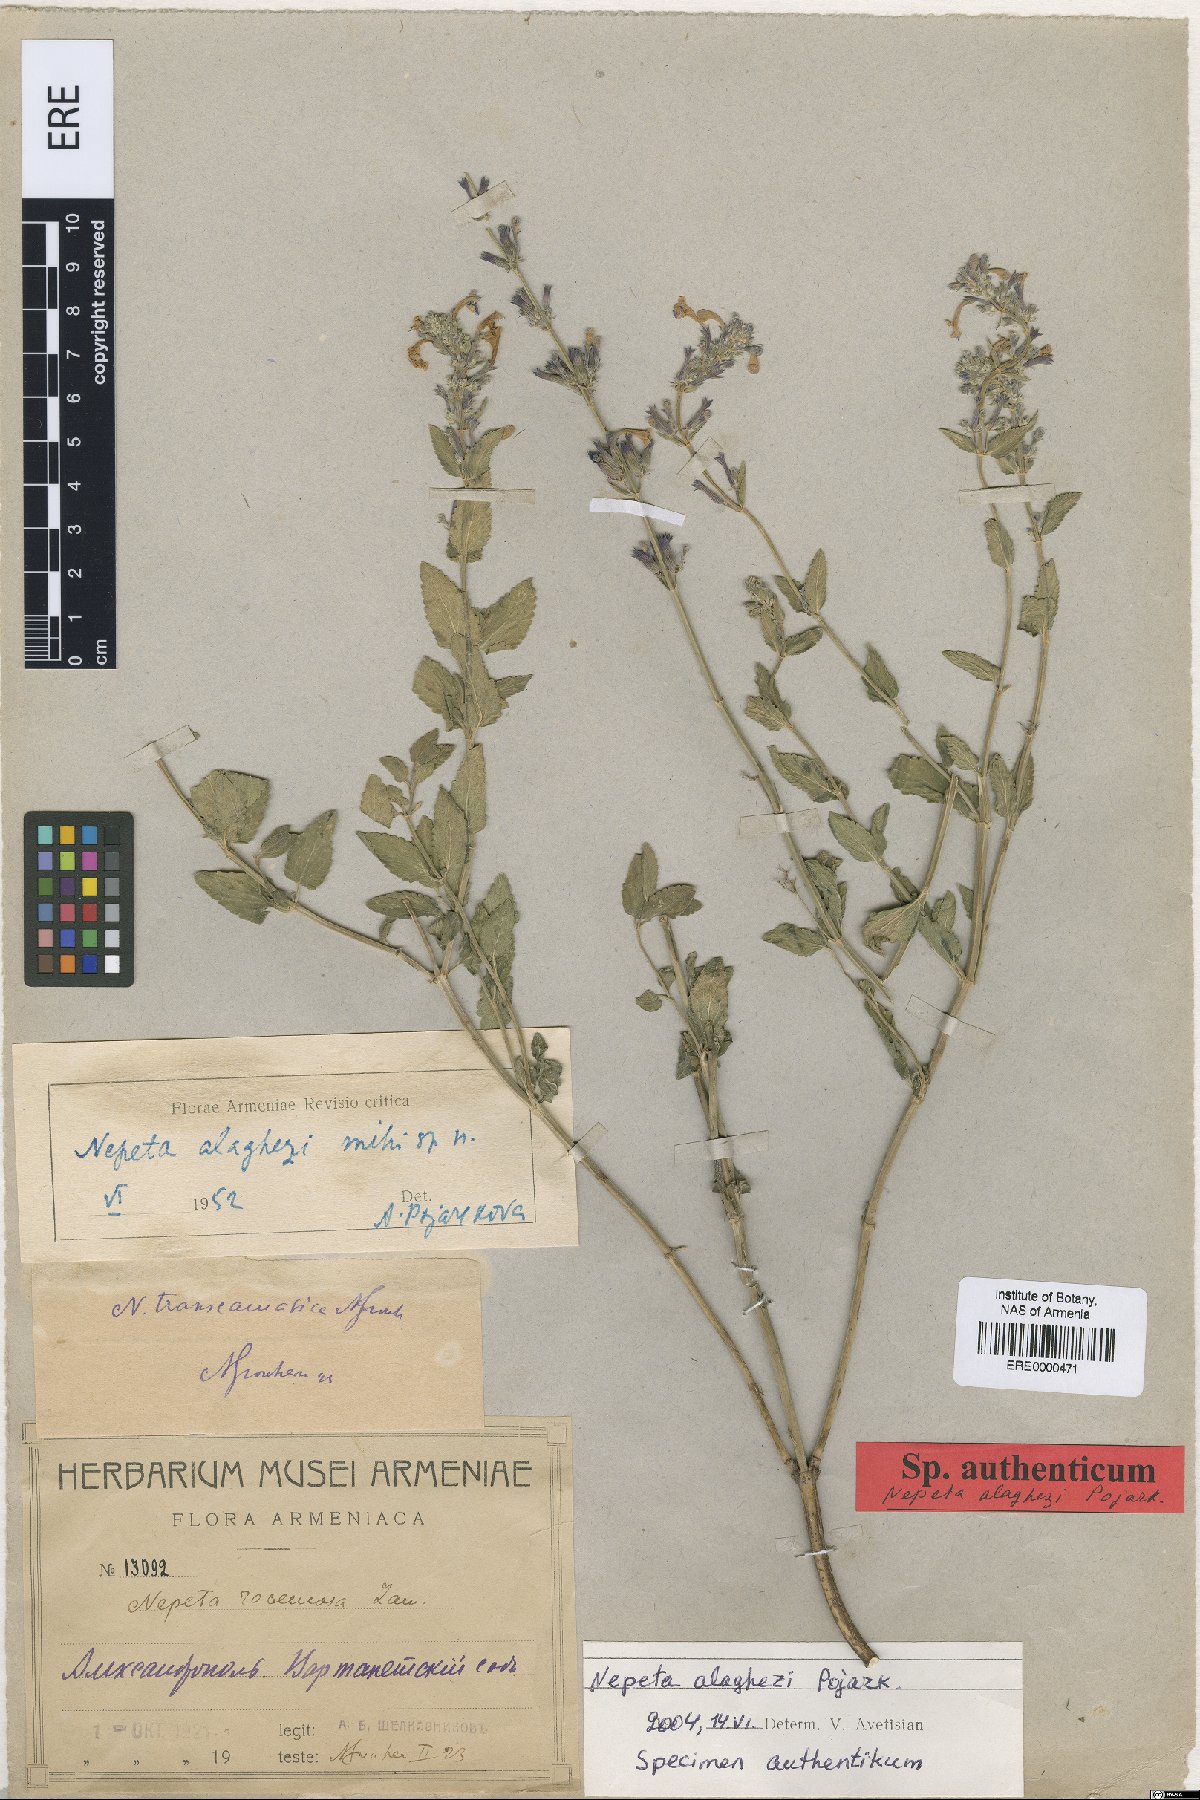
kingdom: Plantae
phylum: Tracheophyta
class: Magnoliopsida
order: Lamiales
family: Lamiaceae
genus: Nepeta
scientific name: Nepeta alaghezi
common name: Alaghezian catmint
